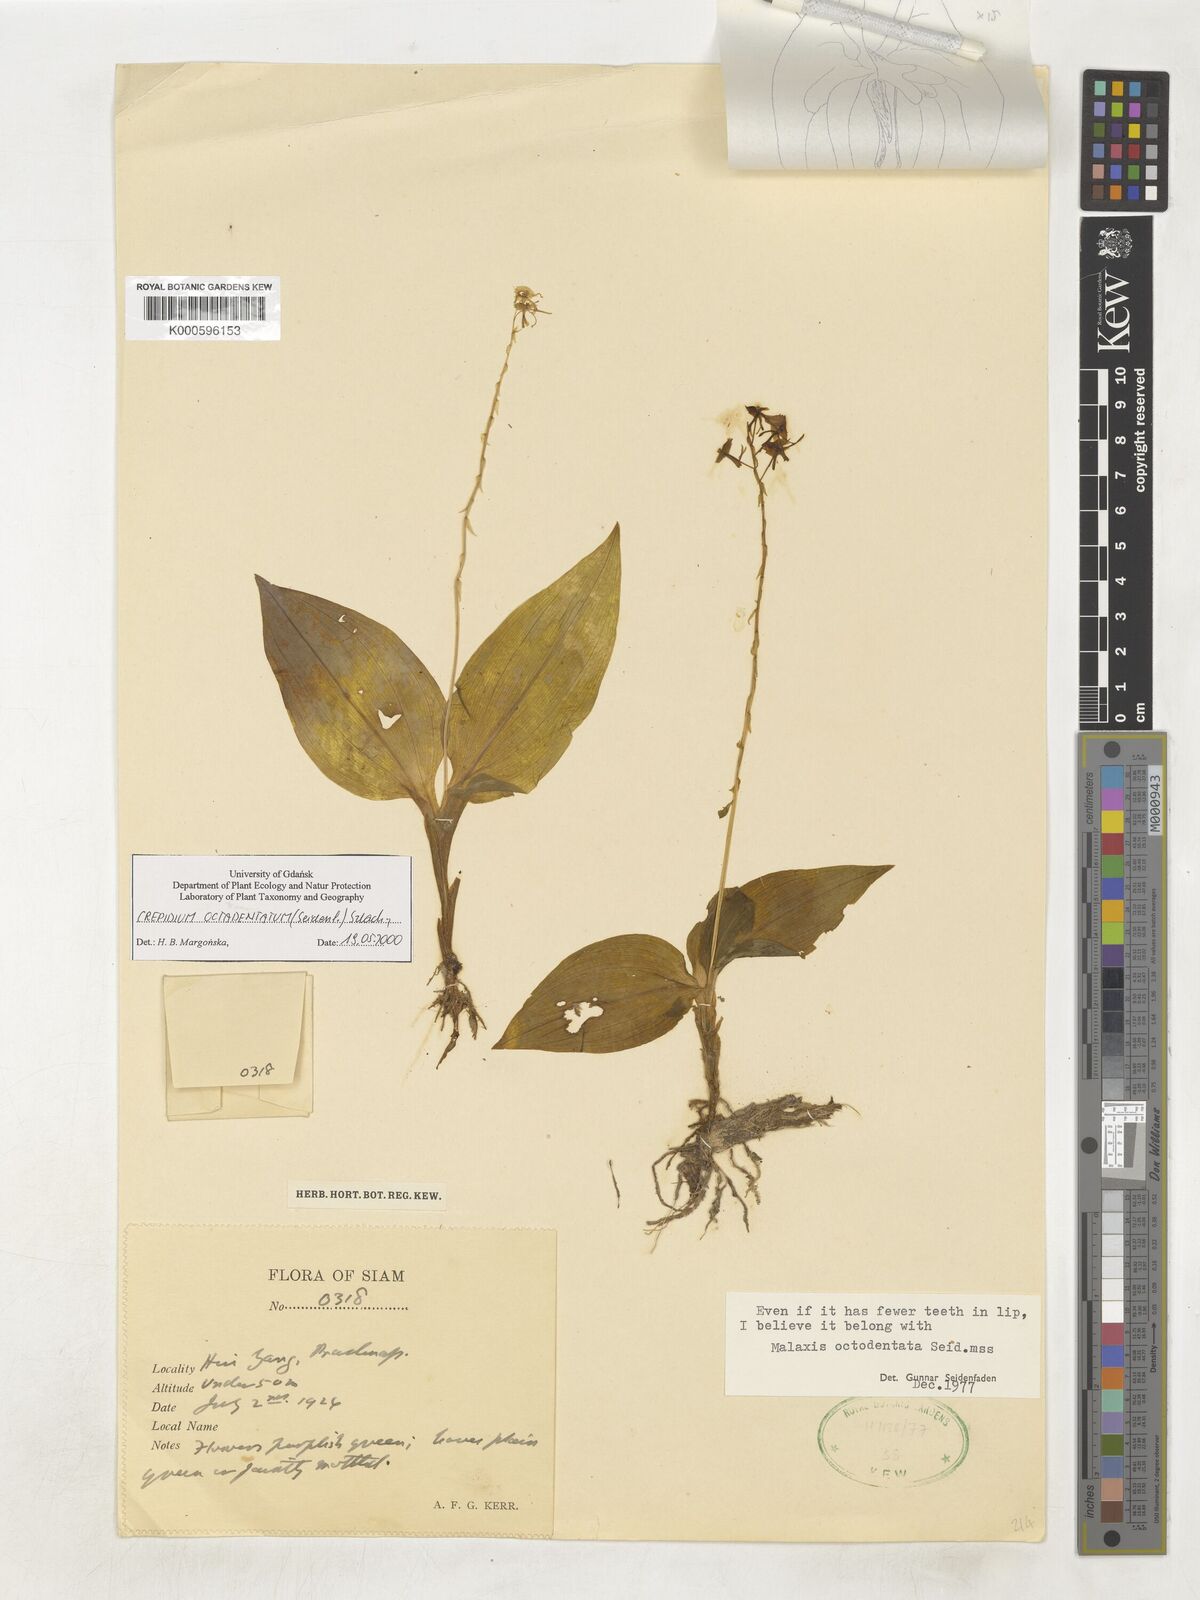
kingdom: Plantae
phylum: Tracheophyta
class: Liliopsida
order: Asparagales
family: Orchidaceae
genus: Crepidium
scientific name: Crepidium octodentatum
